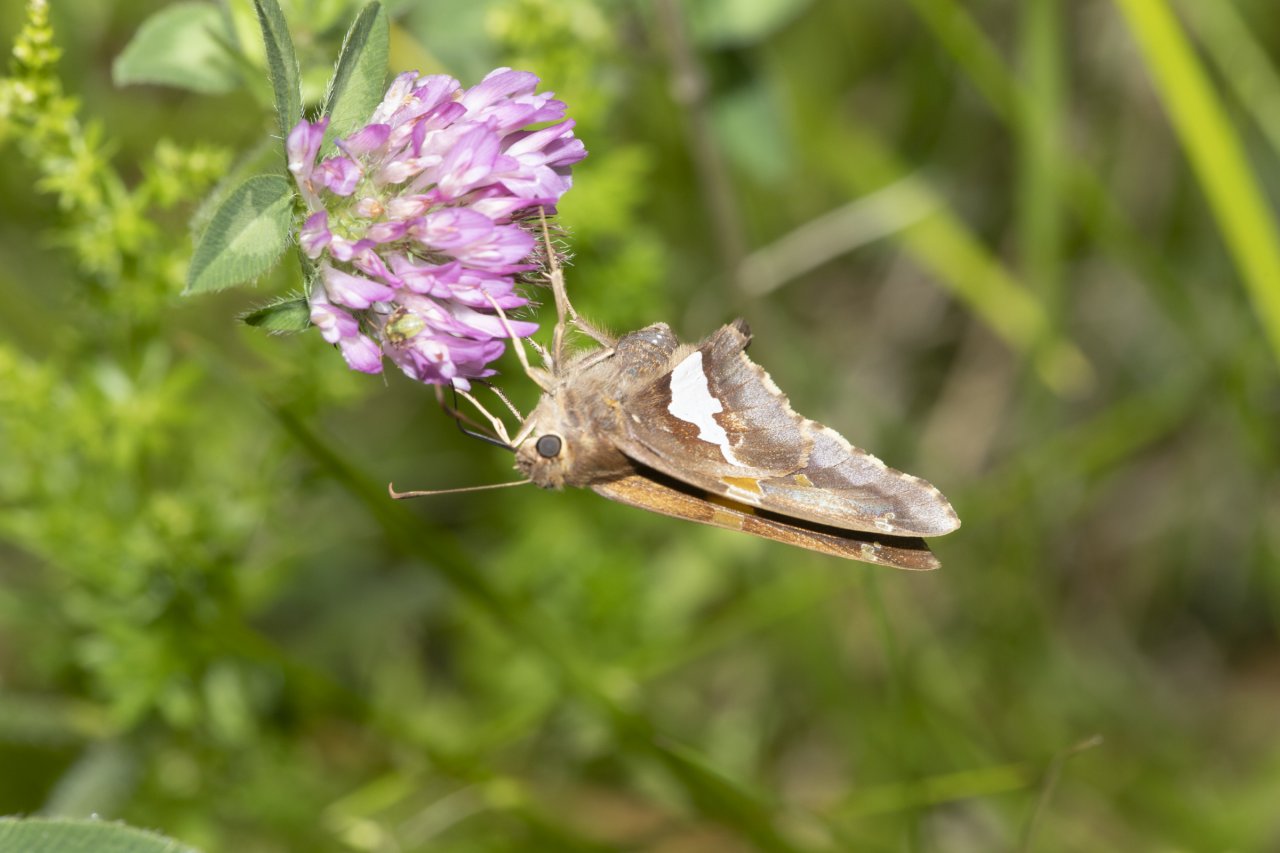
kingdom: Animalia
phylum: Arthropoda
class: Insecta
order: Lepidoptera
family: Hesperiidae
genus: Epargyreus
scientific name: Epargyreus clarus
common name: Silver-spotted Skipper
